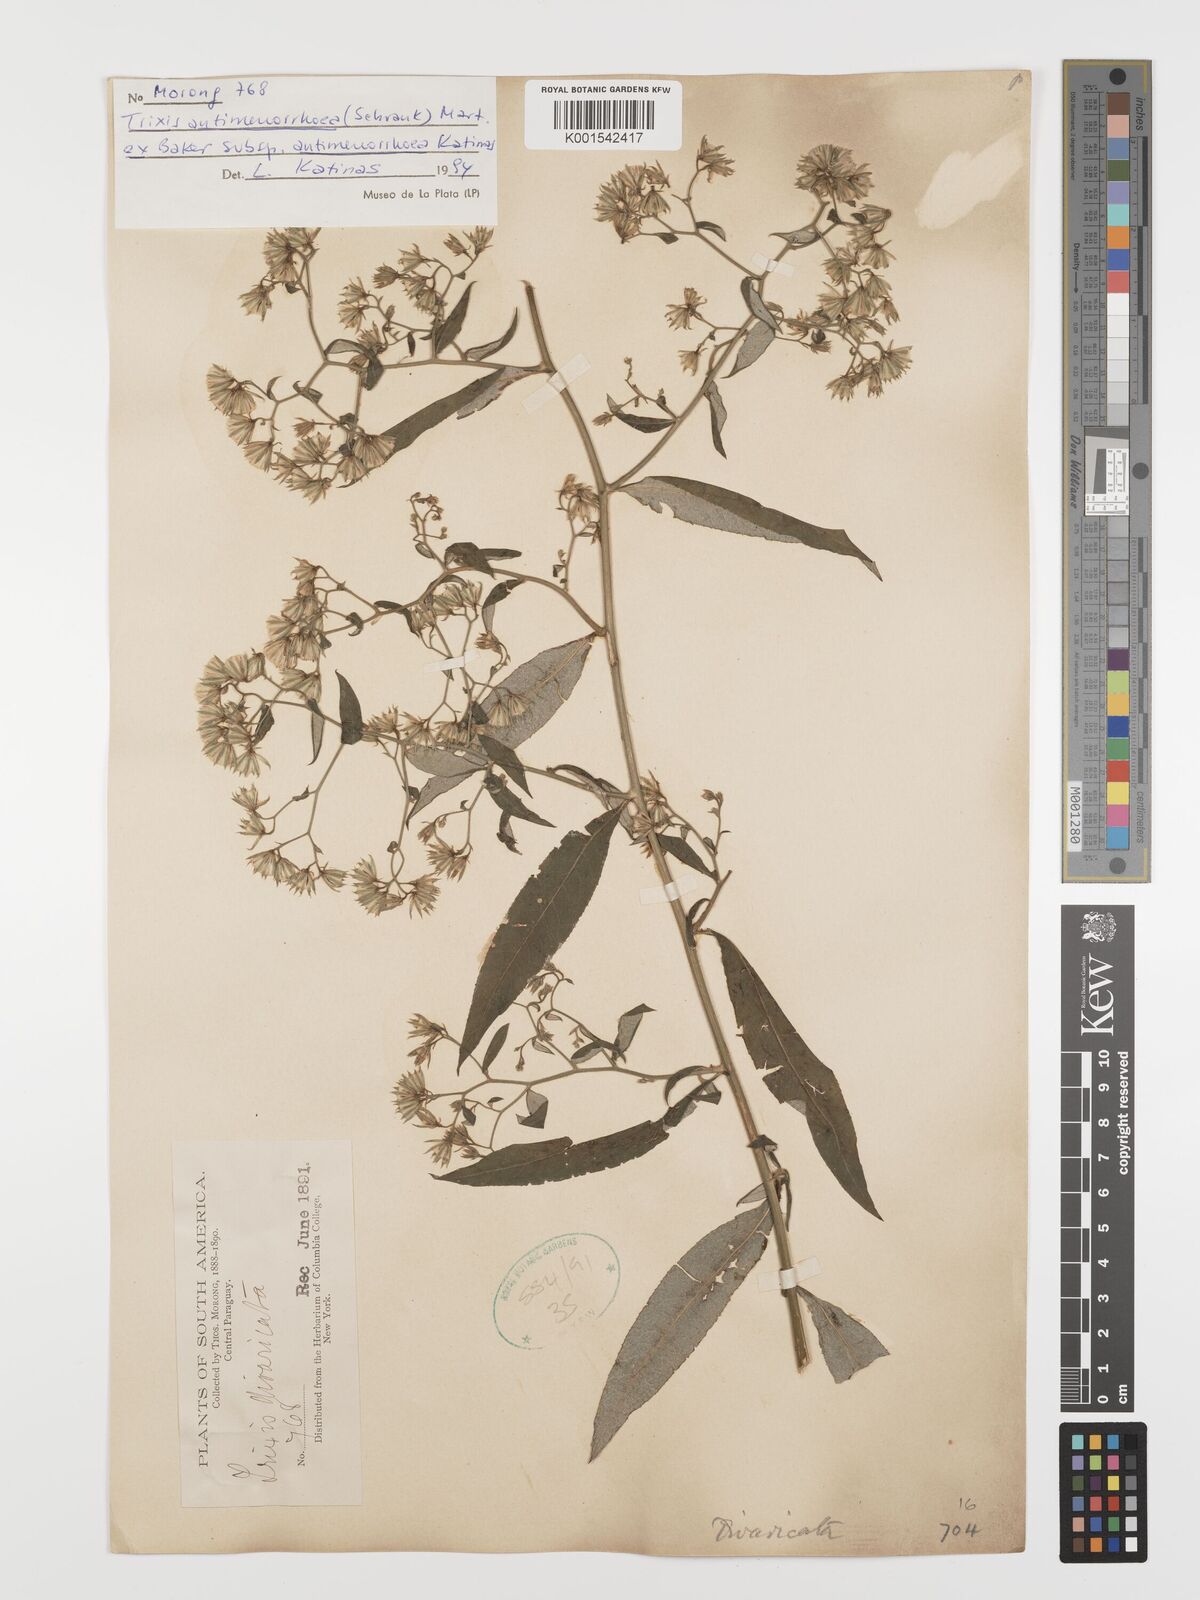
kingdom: Plantae
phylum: Tracheophyta
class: Magnoliopsida
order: Asterales
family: Asteraceae
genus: Trixis
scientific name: Trixis divaricata
